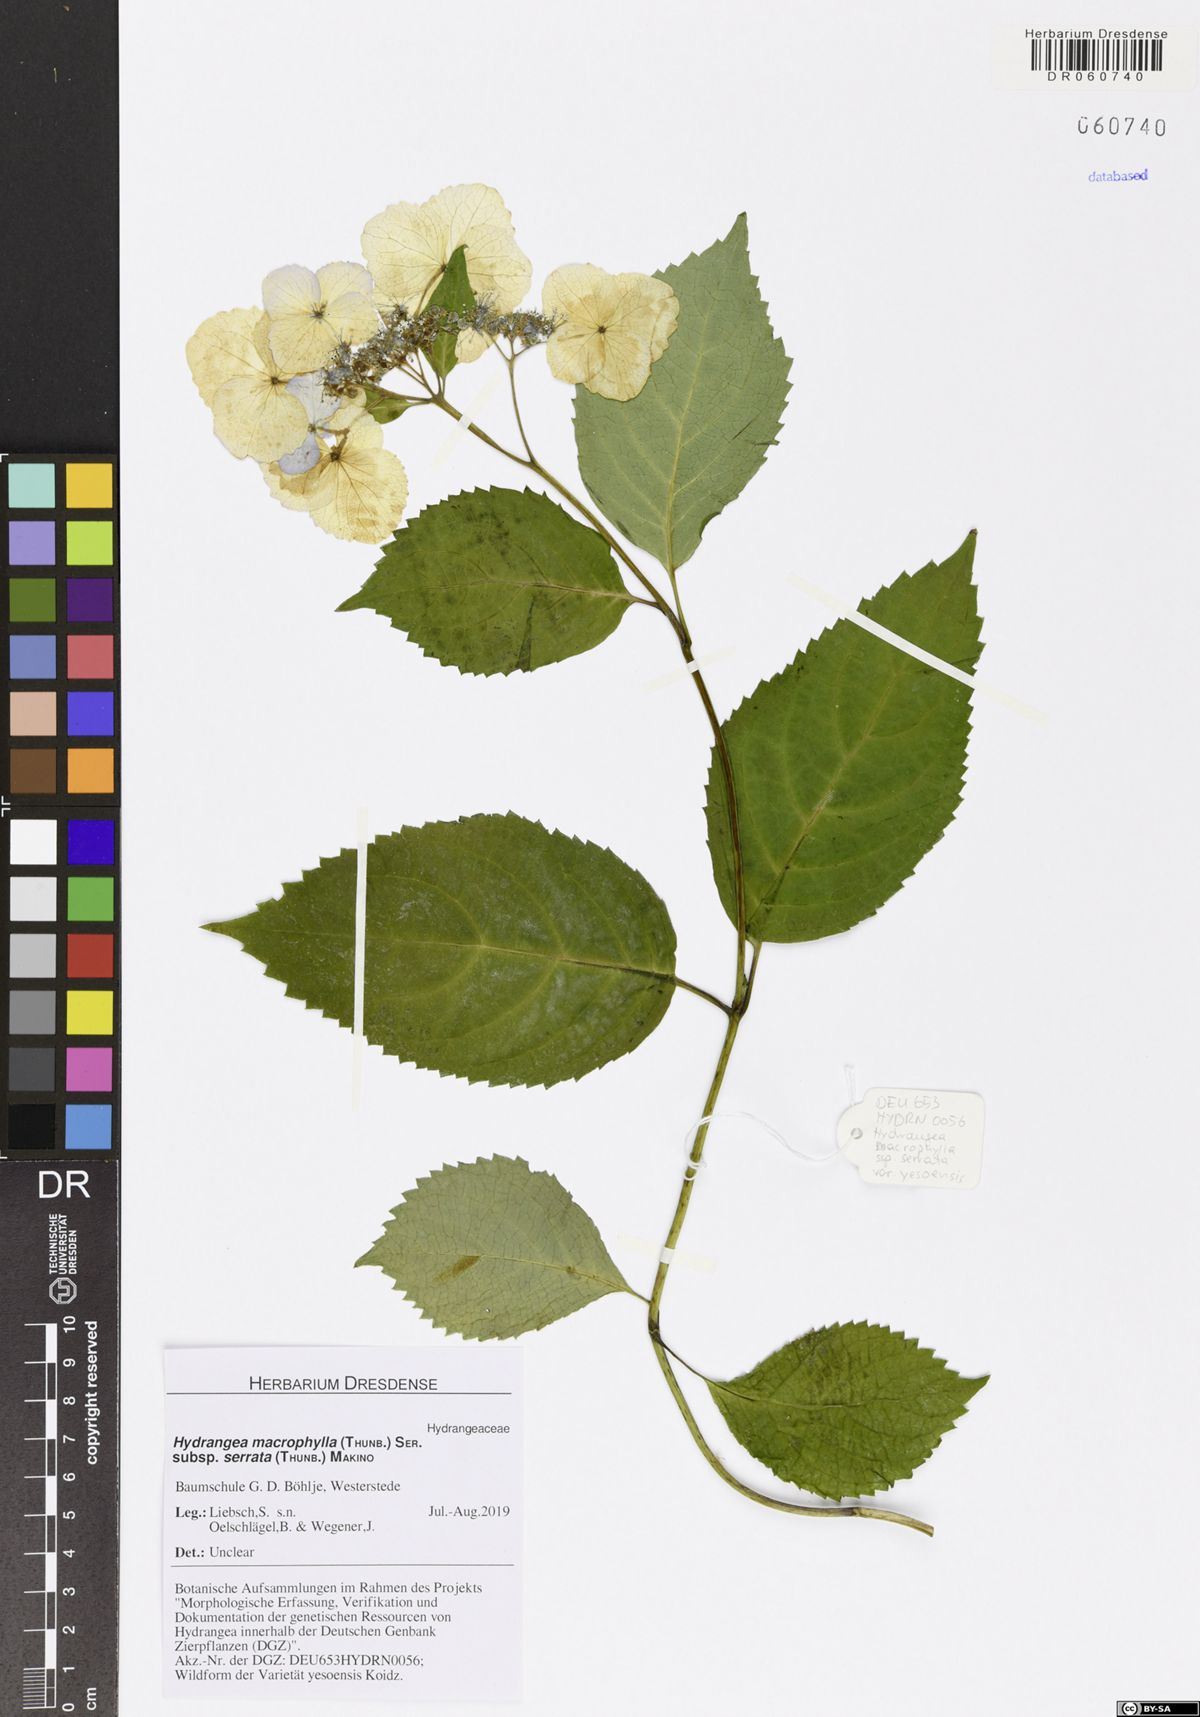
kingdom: Plantae
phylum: Tracheophyta
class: Magnoliopsida
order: Cornales
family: Hydrangeaceae
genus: Hydrangea
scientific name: Hydrangea serrata
